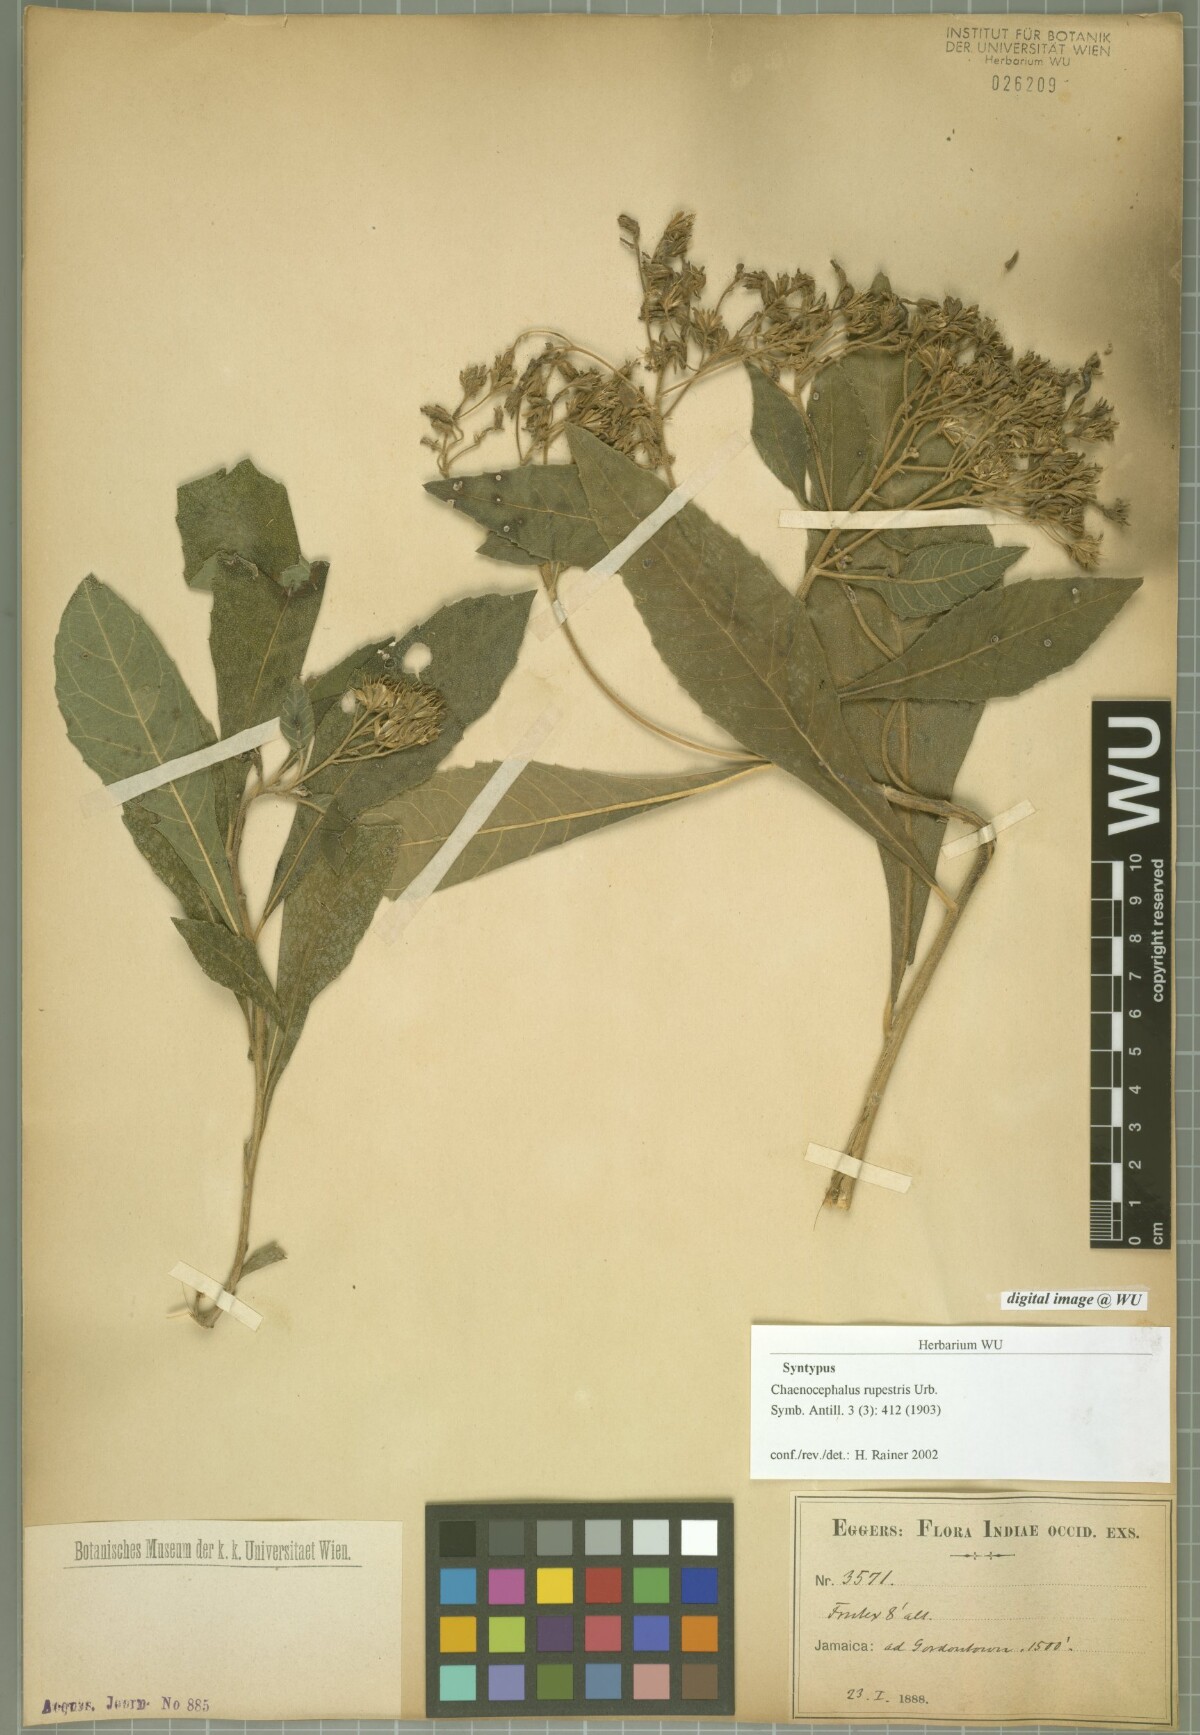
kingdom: Plantae
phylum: Tracheophyta
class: Magnoliopsida
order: Asterales
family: Asteraceae
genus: Verbesina
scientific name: Verbesina rupestris
